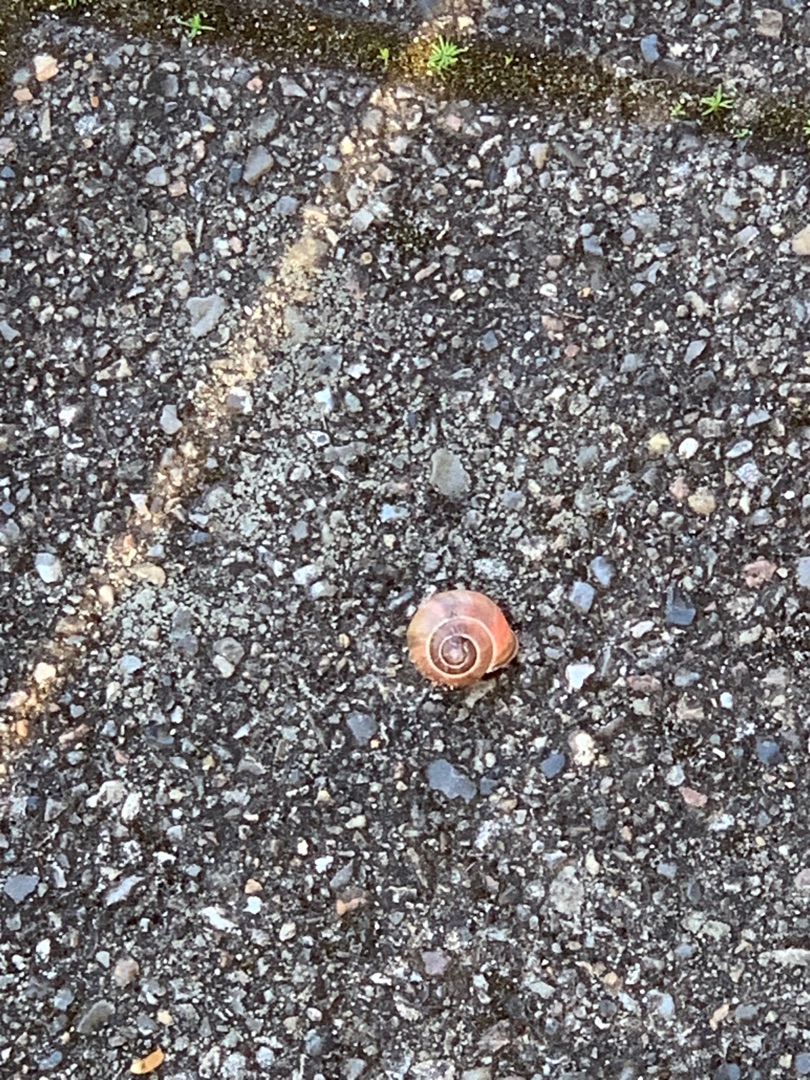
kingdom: Animalia
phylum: Mollusca
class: Gastropoda
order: Stylommatophora
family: Helicidae
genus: Cepaea
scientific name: Cepaea nemoralis
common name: Lundsnegl
